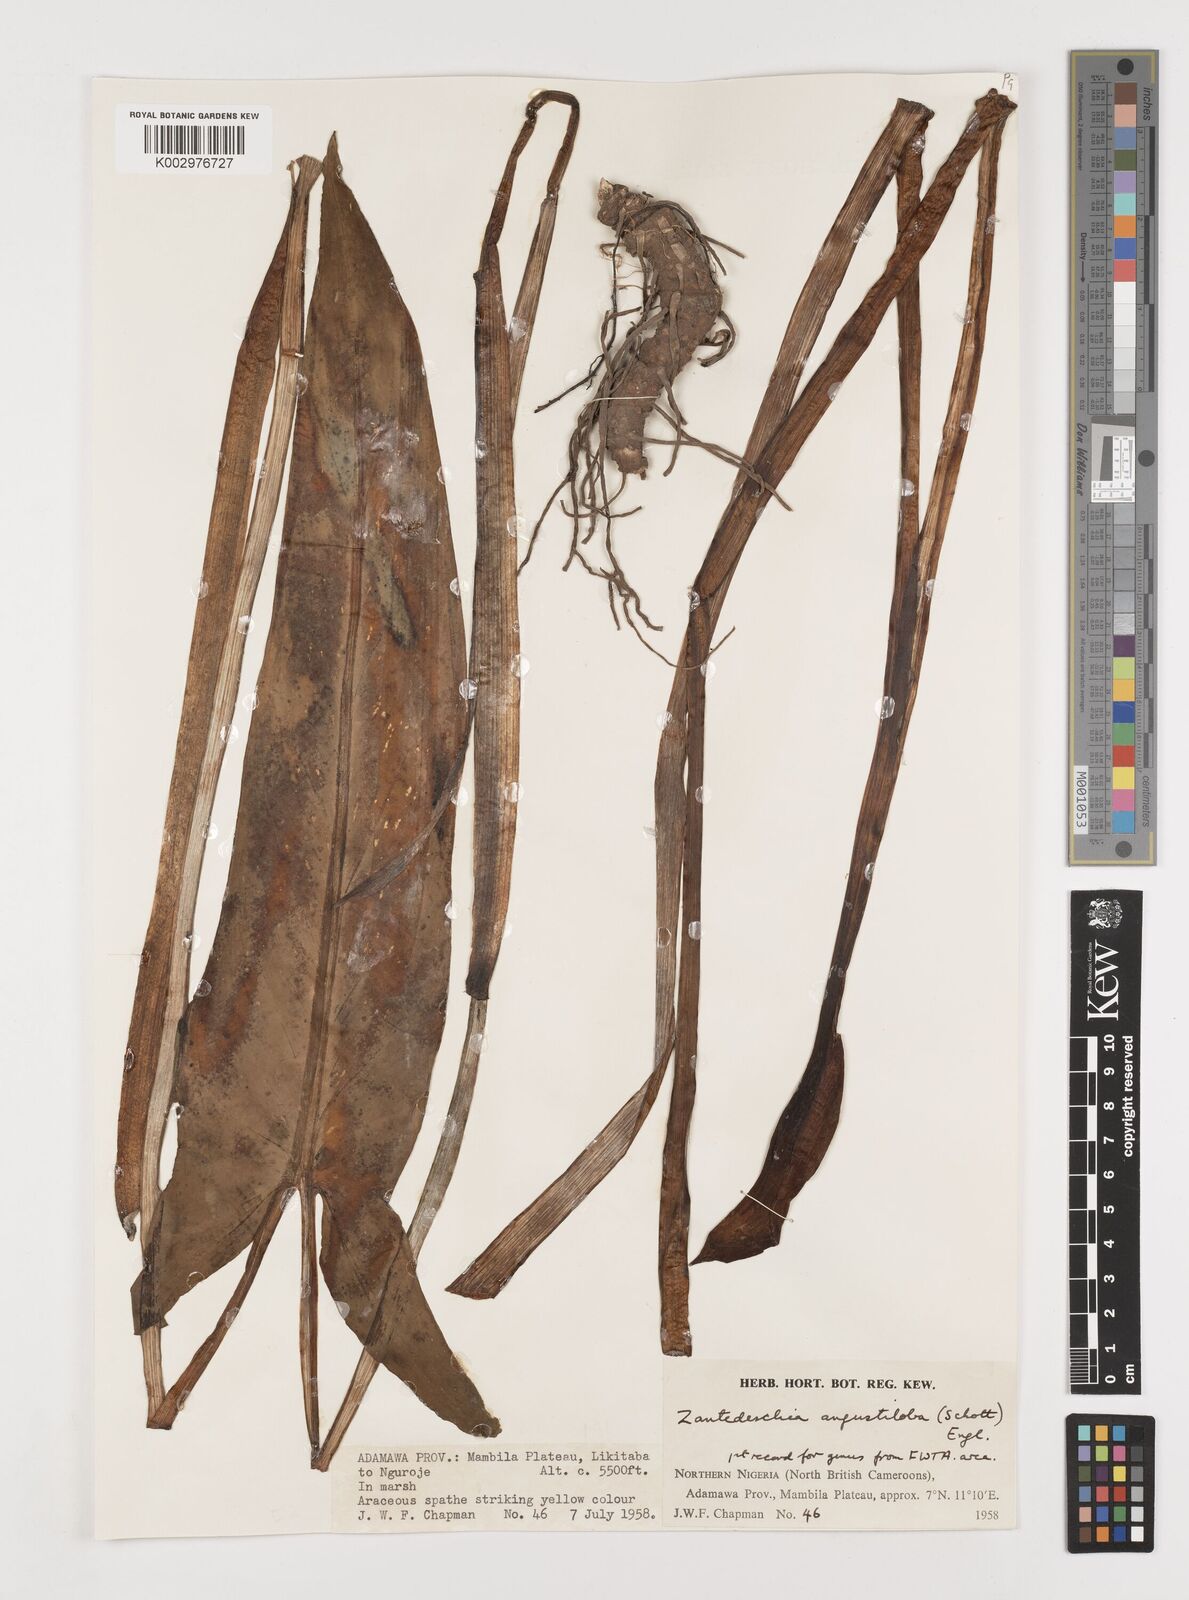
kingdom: Plantae
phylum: Tracheophyta
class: Liliopsida
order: Alismatales
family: Araceae
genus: Zantedeschia
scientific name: Zantedeschia albomaculata
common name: Spotted calla lily
